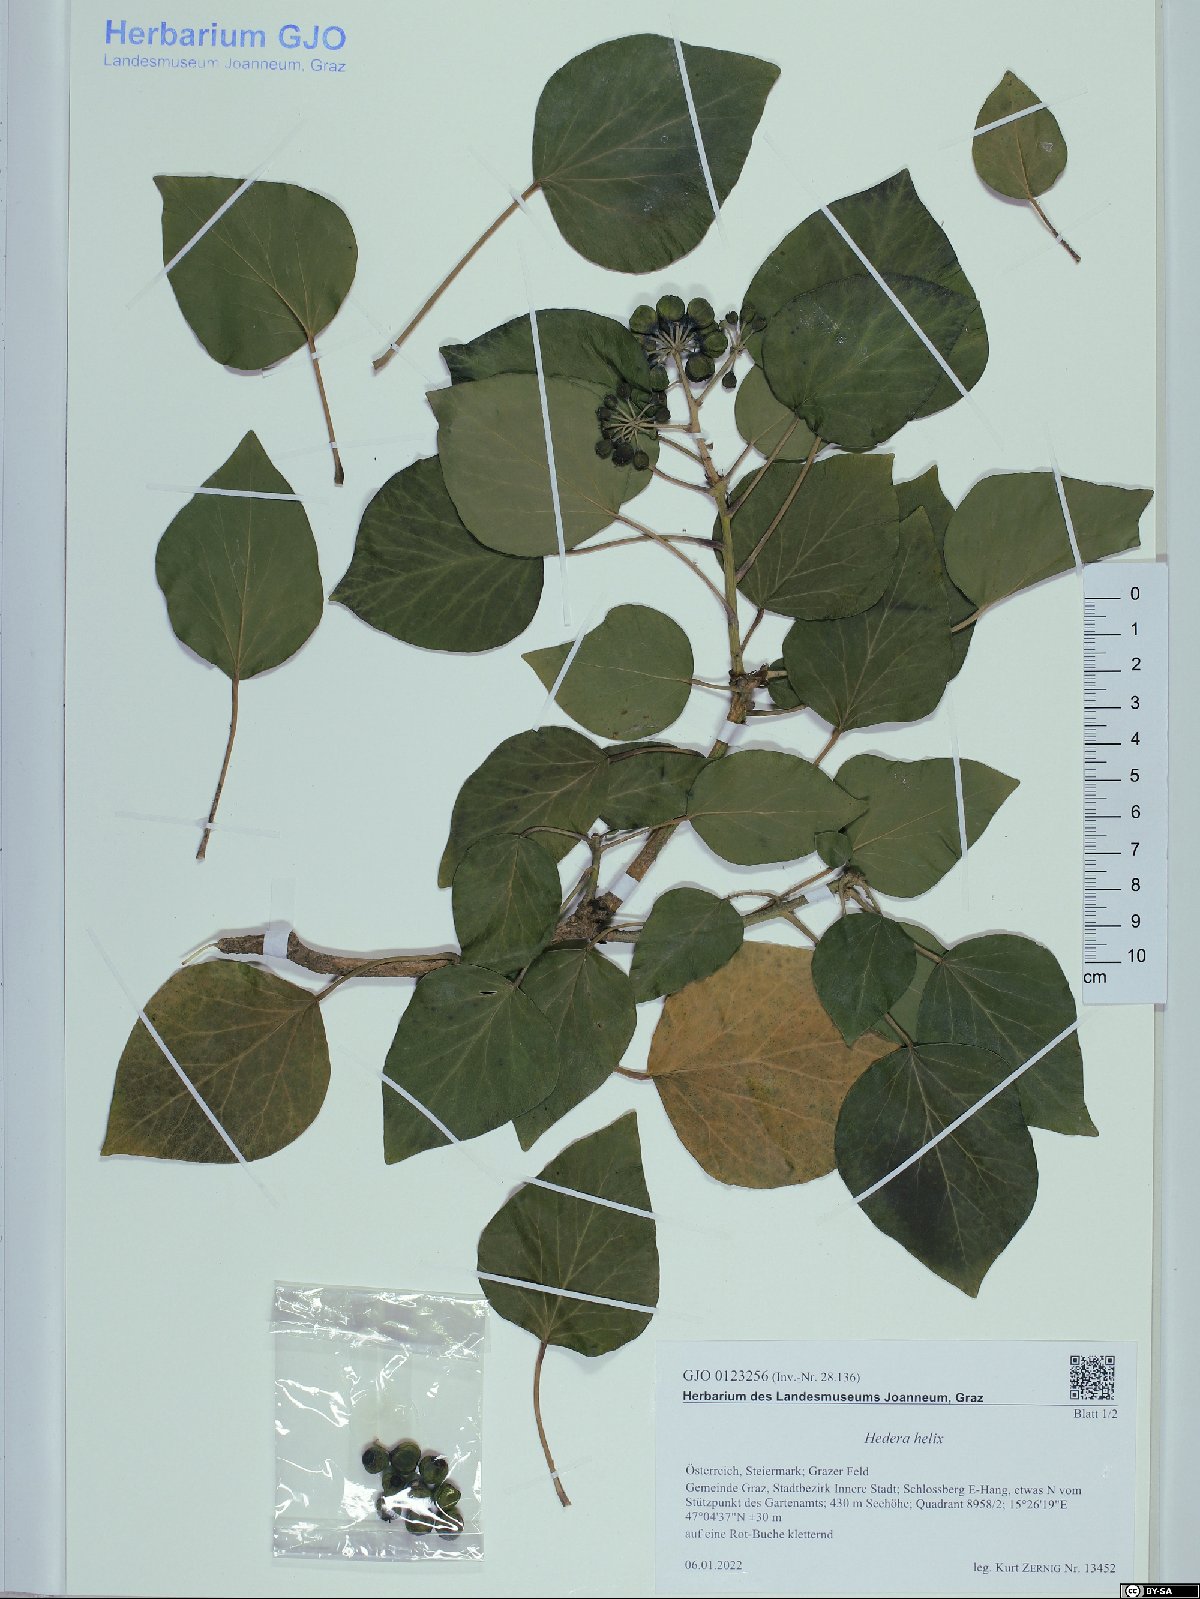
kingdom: Plantae
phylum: Tracheophyta
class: Magnoliopsida
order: Apiales
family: Araliaceae
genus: Hedera
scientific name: Hedera helix
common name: Ivy
